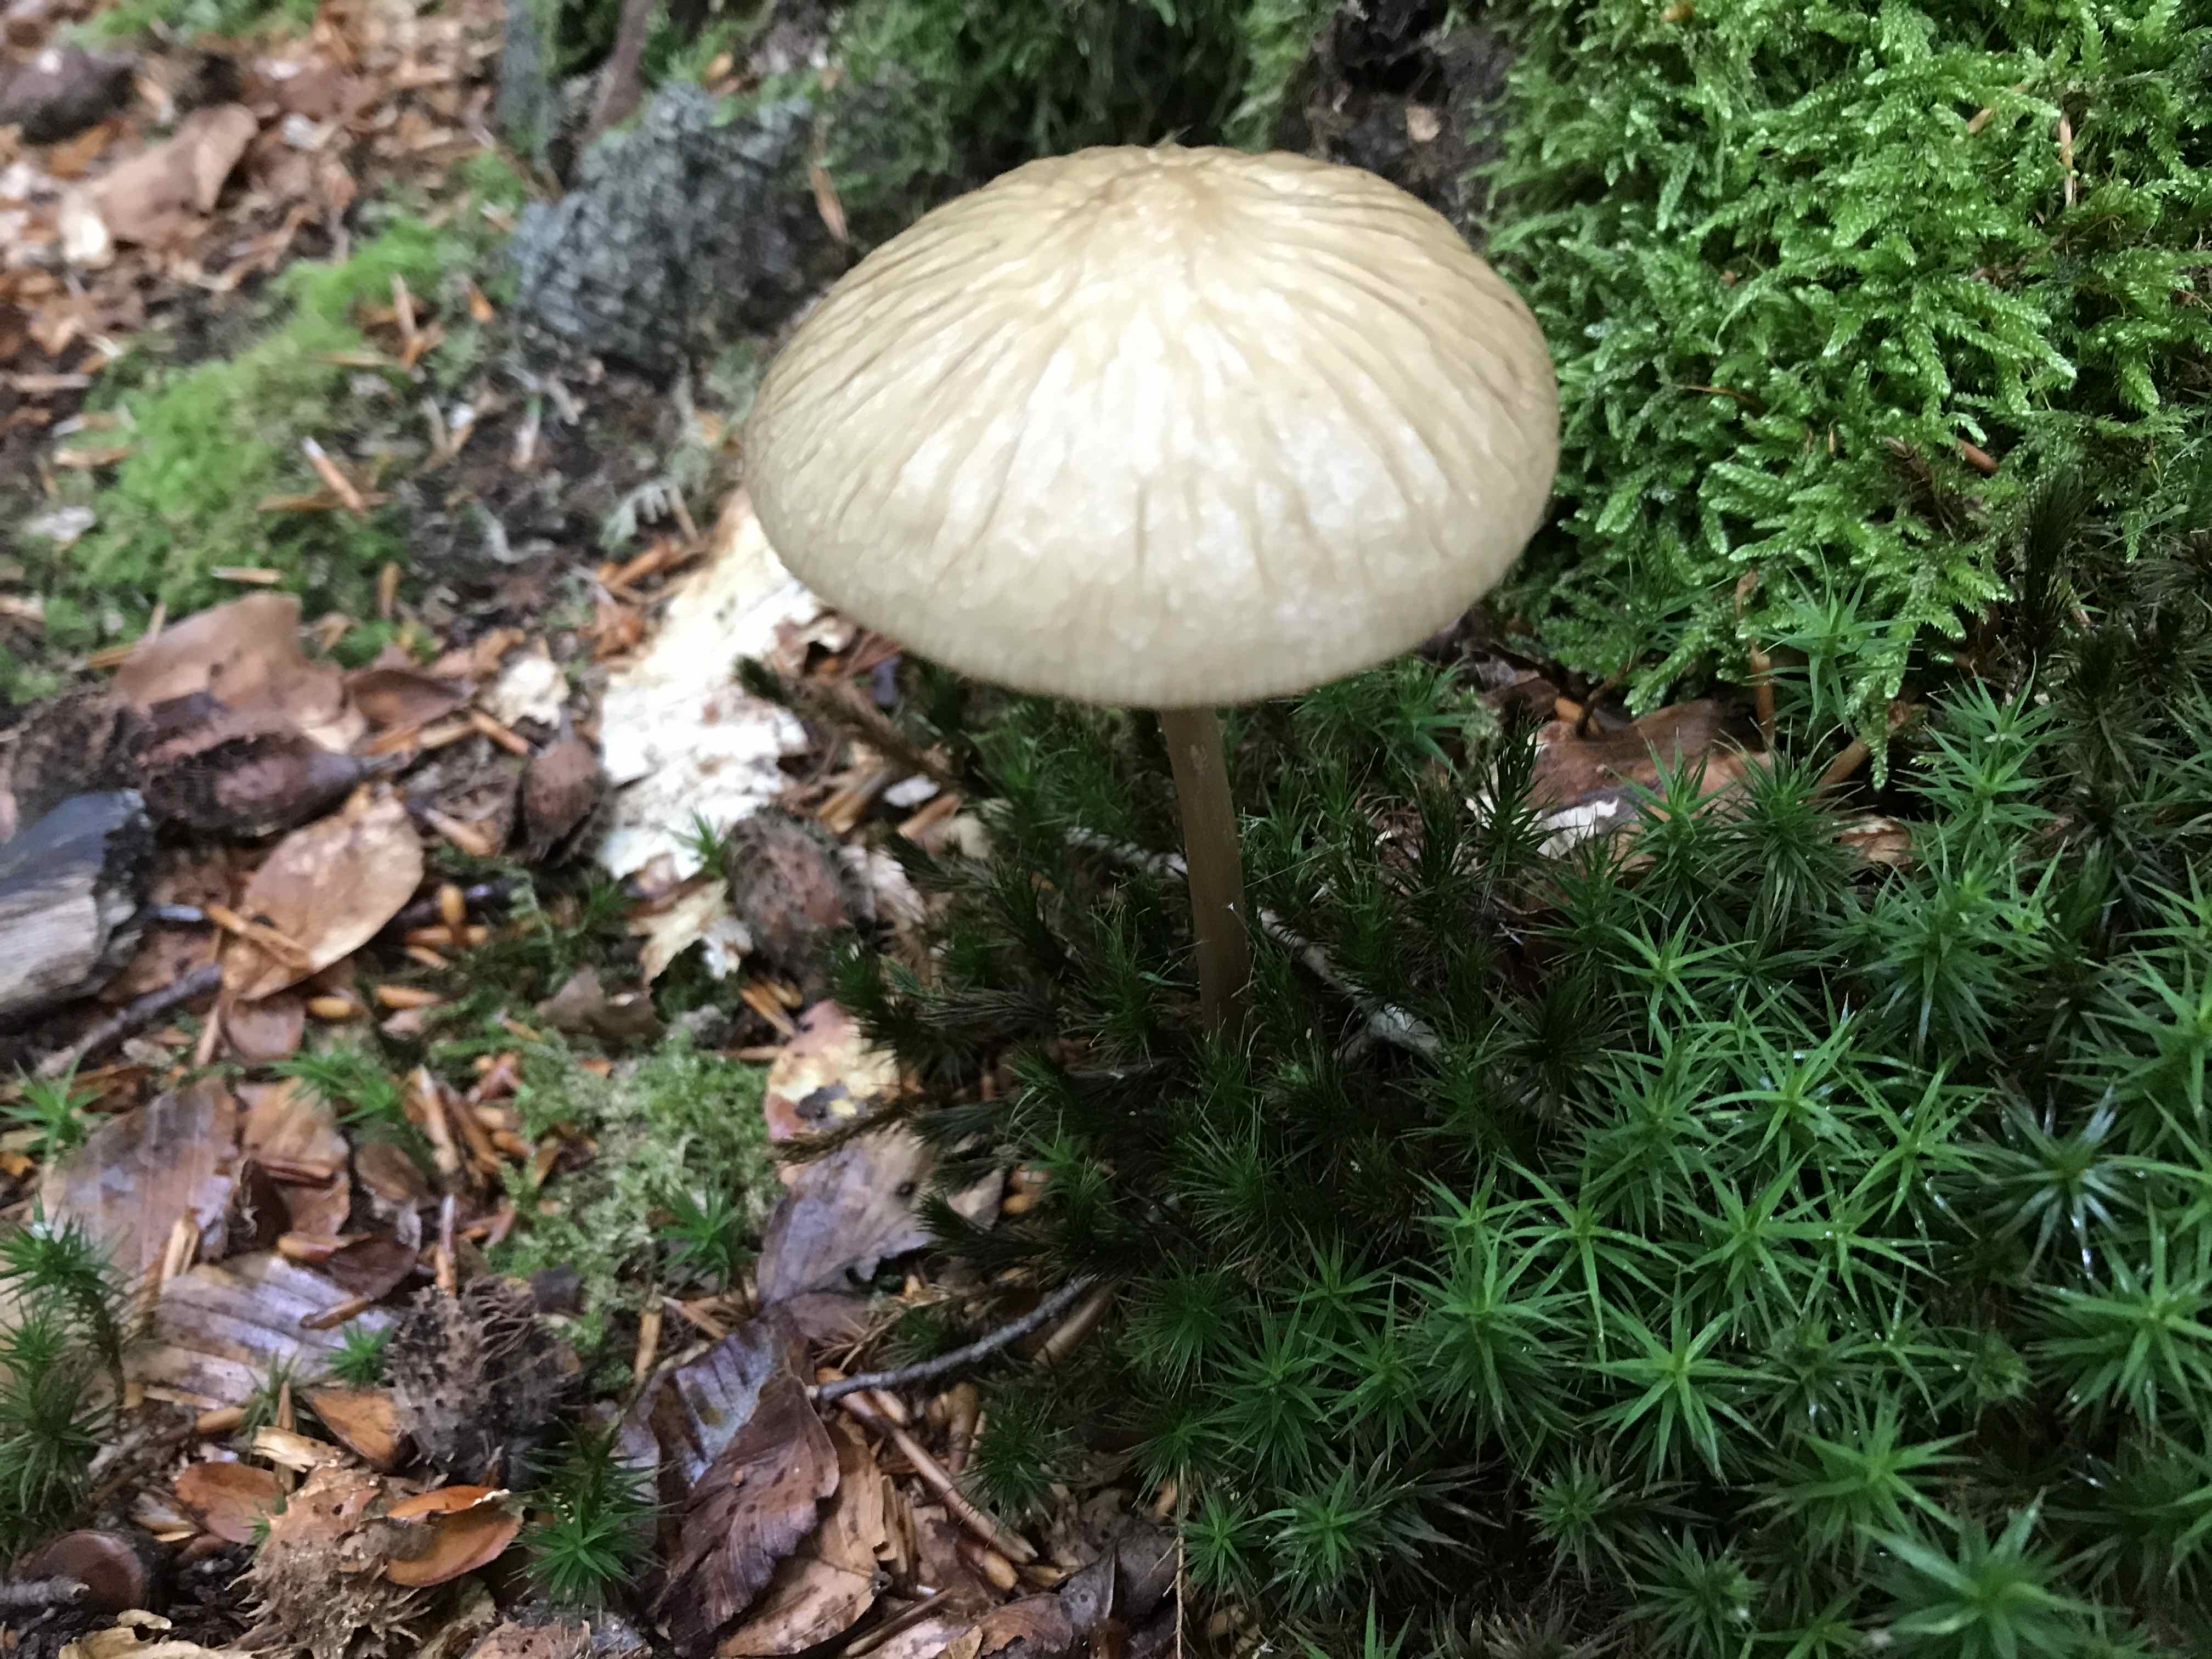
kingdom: Fungi
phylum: Basidiomycota
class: Agaricomycetes
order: Agaricales
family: Physalacriaceae
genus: Hymenopellis
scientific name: Hymenopellis radicata
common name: almindelig pælerodshat
